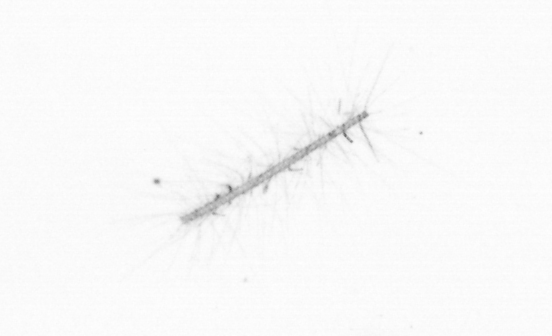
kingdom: Chromista
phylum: Ochrophyta
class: Bacillariophyceae
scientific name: Bacillariophyceae
